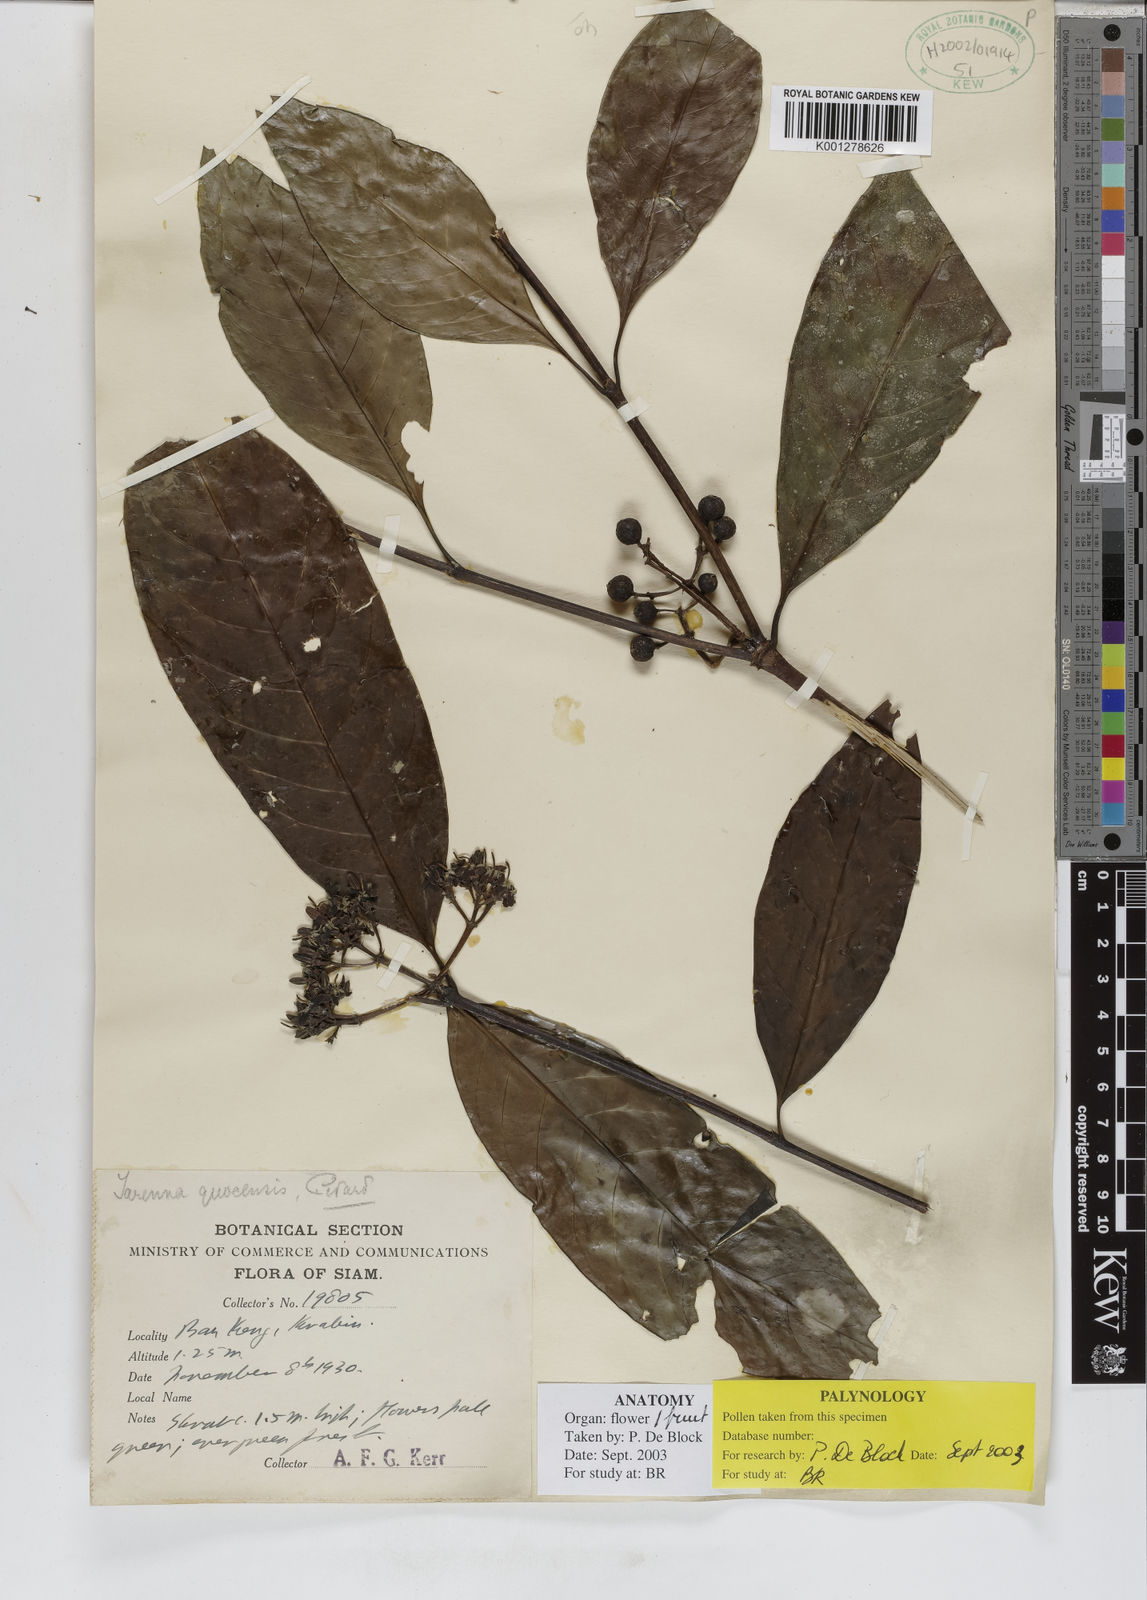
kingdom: Plantae
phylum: Tracheophyta
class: Magnoliopsida
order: Gentianales
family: Rubiaceae
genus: Tarenna
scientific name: Tarenna quocensis
